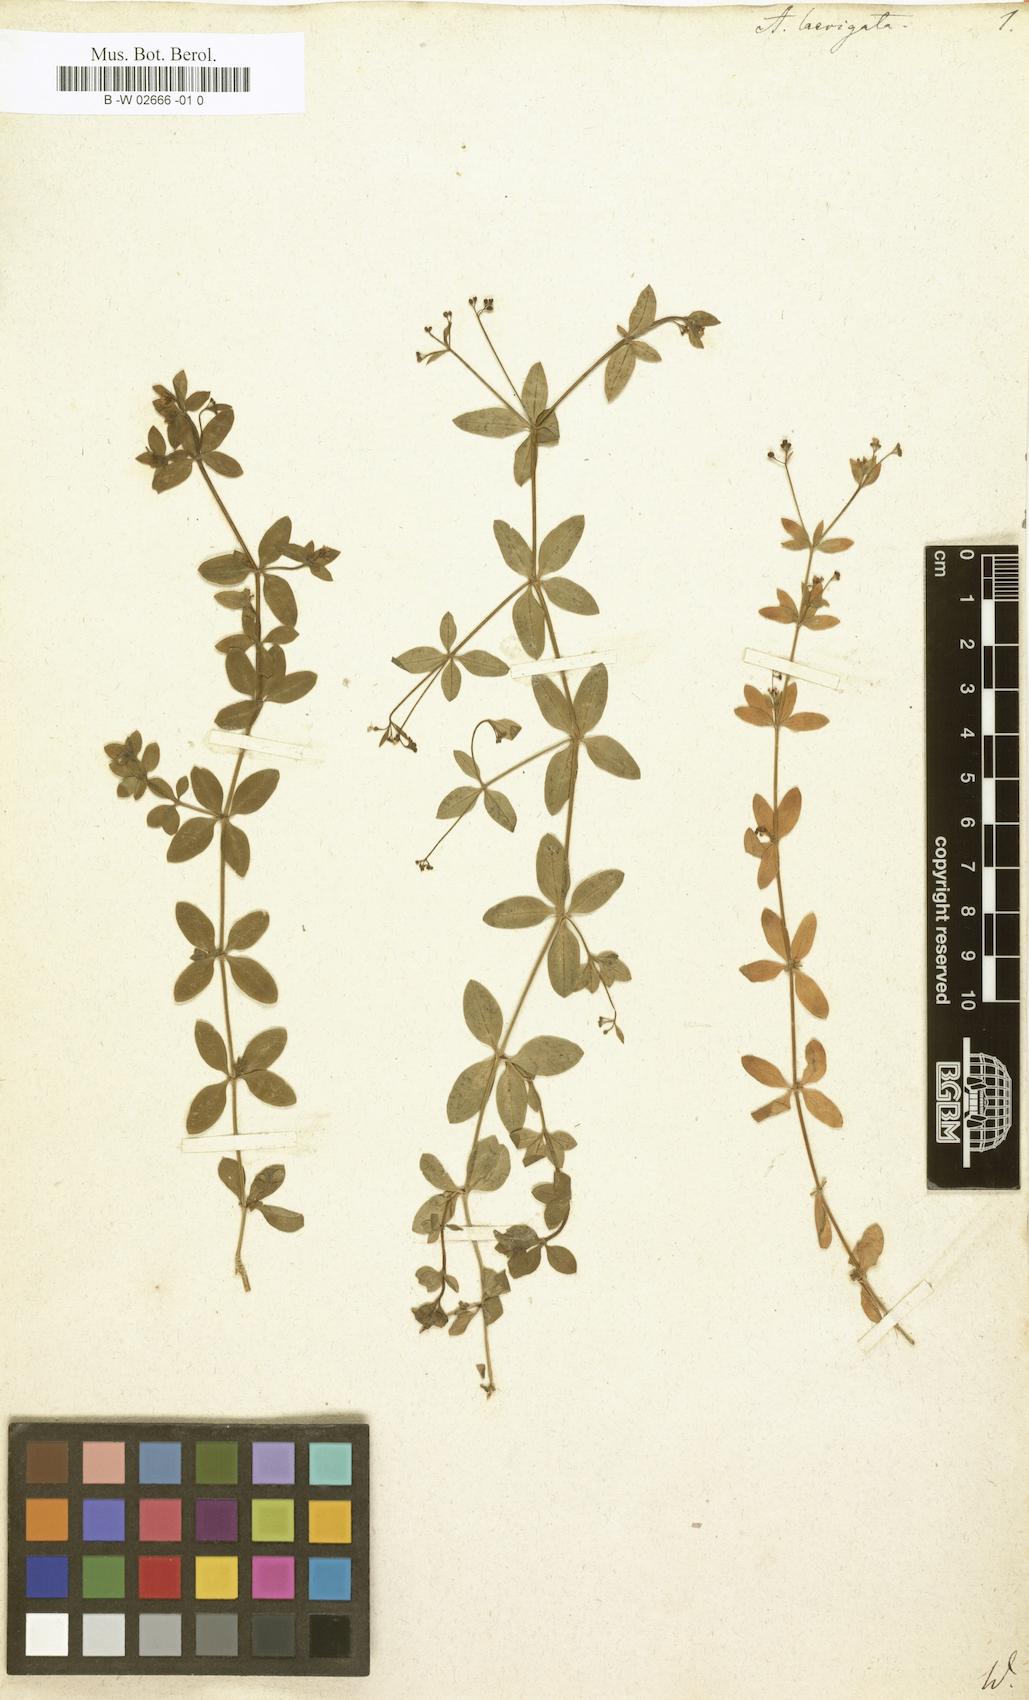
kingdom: Plantae
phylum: Tracheophyta
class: Magnoliopsida
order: Gentianales
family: Rubiaceae
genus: Asperula
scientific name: Asperula laevigata
